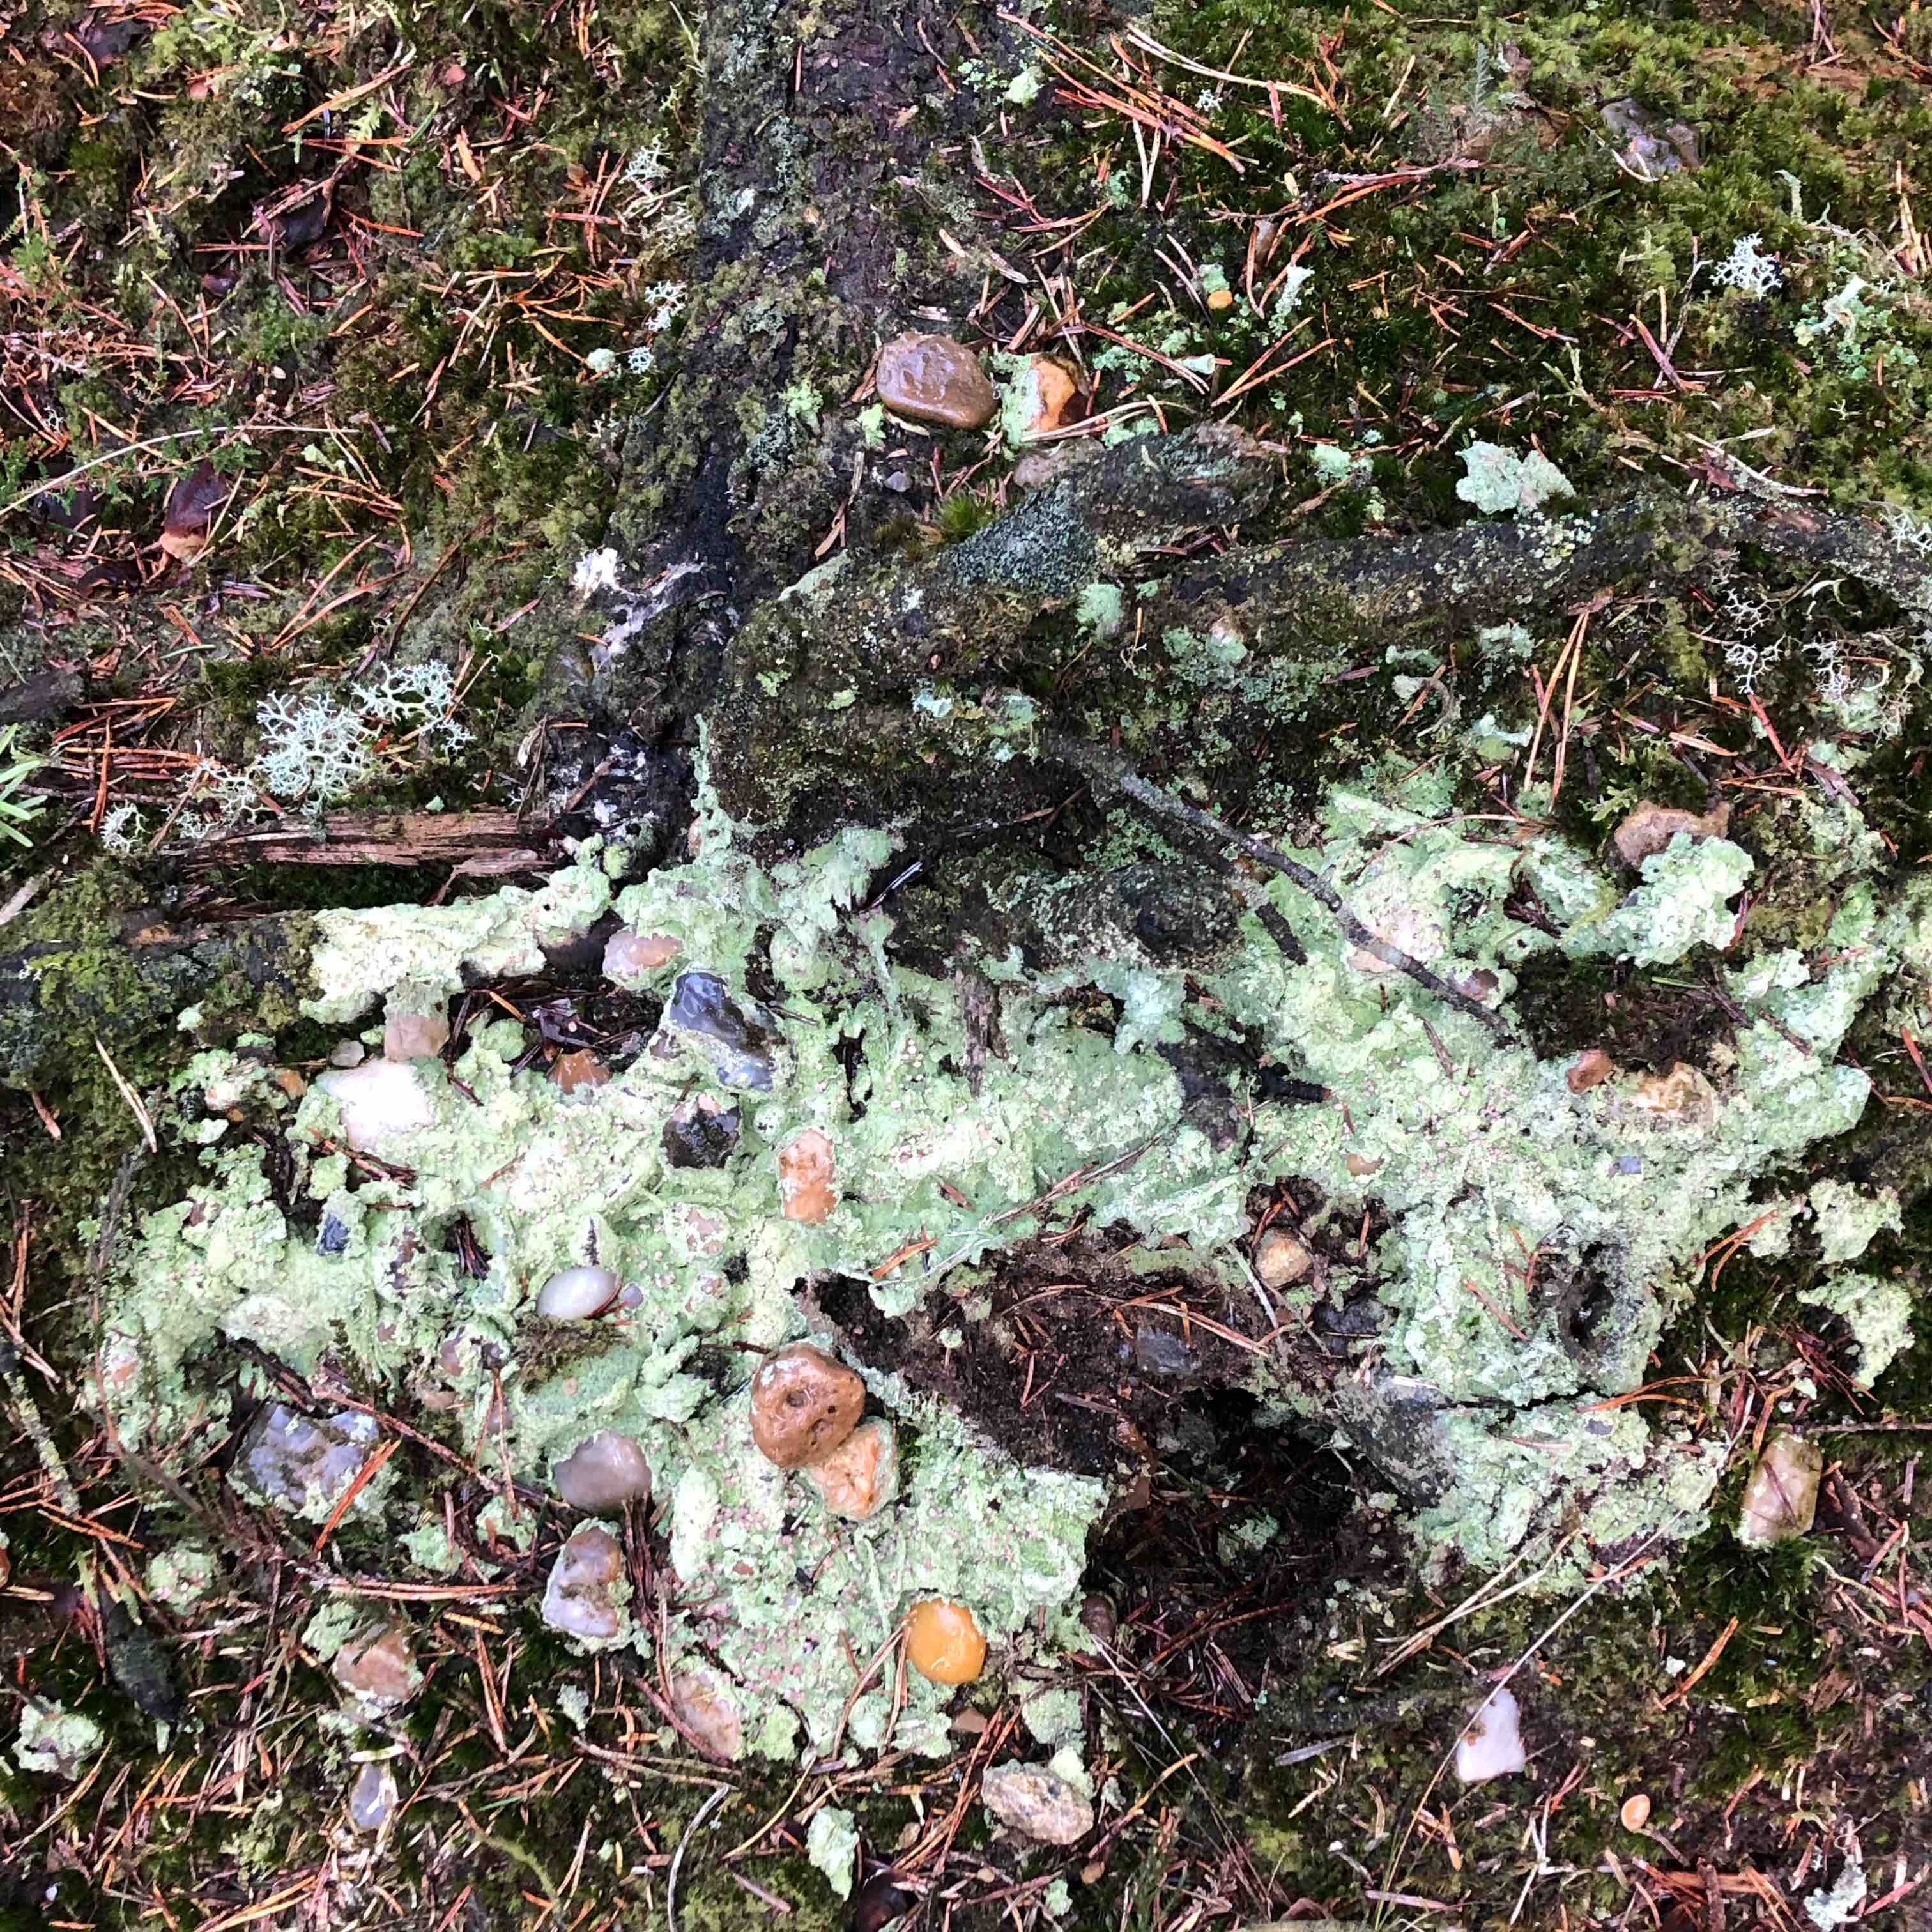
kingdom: Fungi
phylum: Ascomycota
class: Lecanoromycetes
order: Baeomycetales
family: Baeomycetaceae
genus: Baeomyces
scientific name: Baeomyces rufus
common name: rødbrun svampelav
